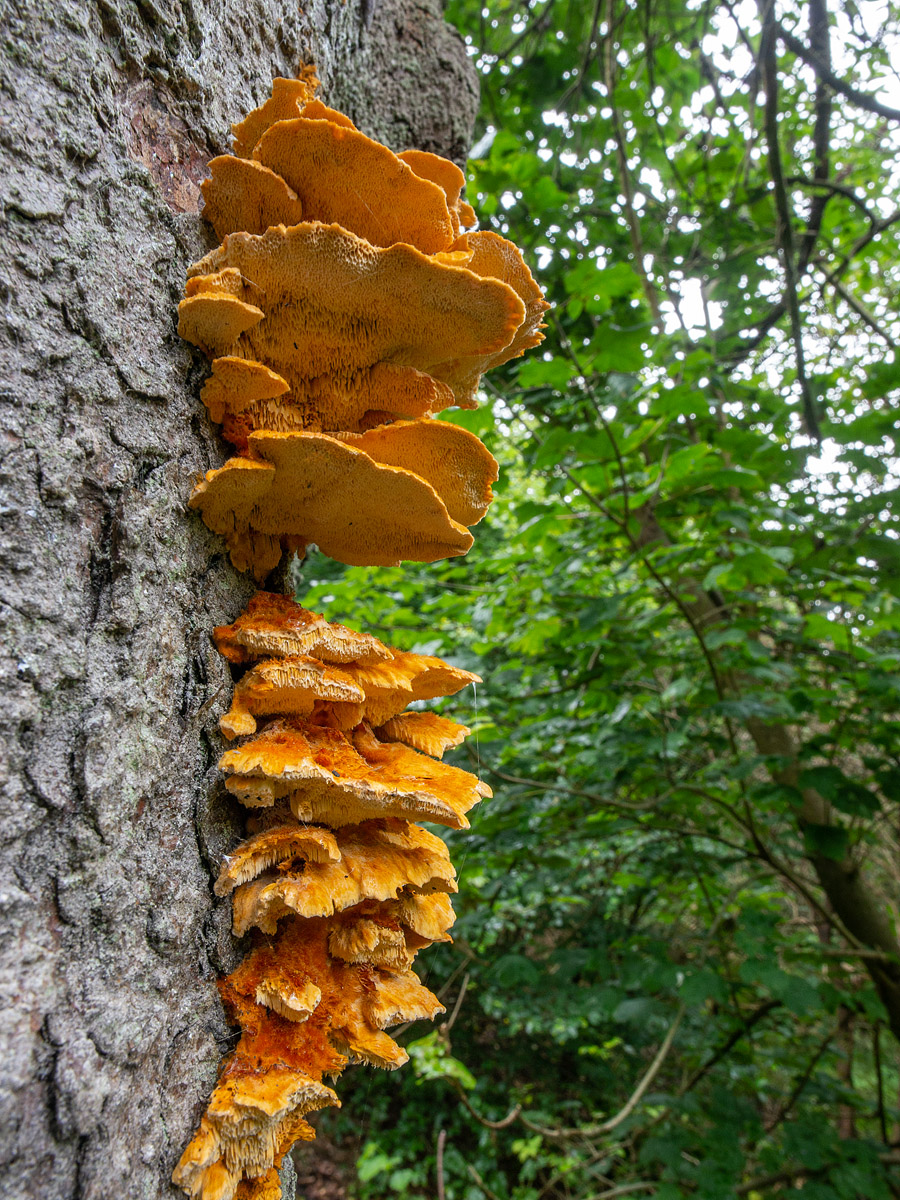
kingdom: Fungi
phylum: Basidiomycota
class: Agaricomycetes
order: Polyporales
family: Pycnoporellaceae
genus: Pycnoporellus
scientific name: Pycnoporellus fulgens
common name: flammeporesvamp
